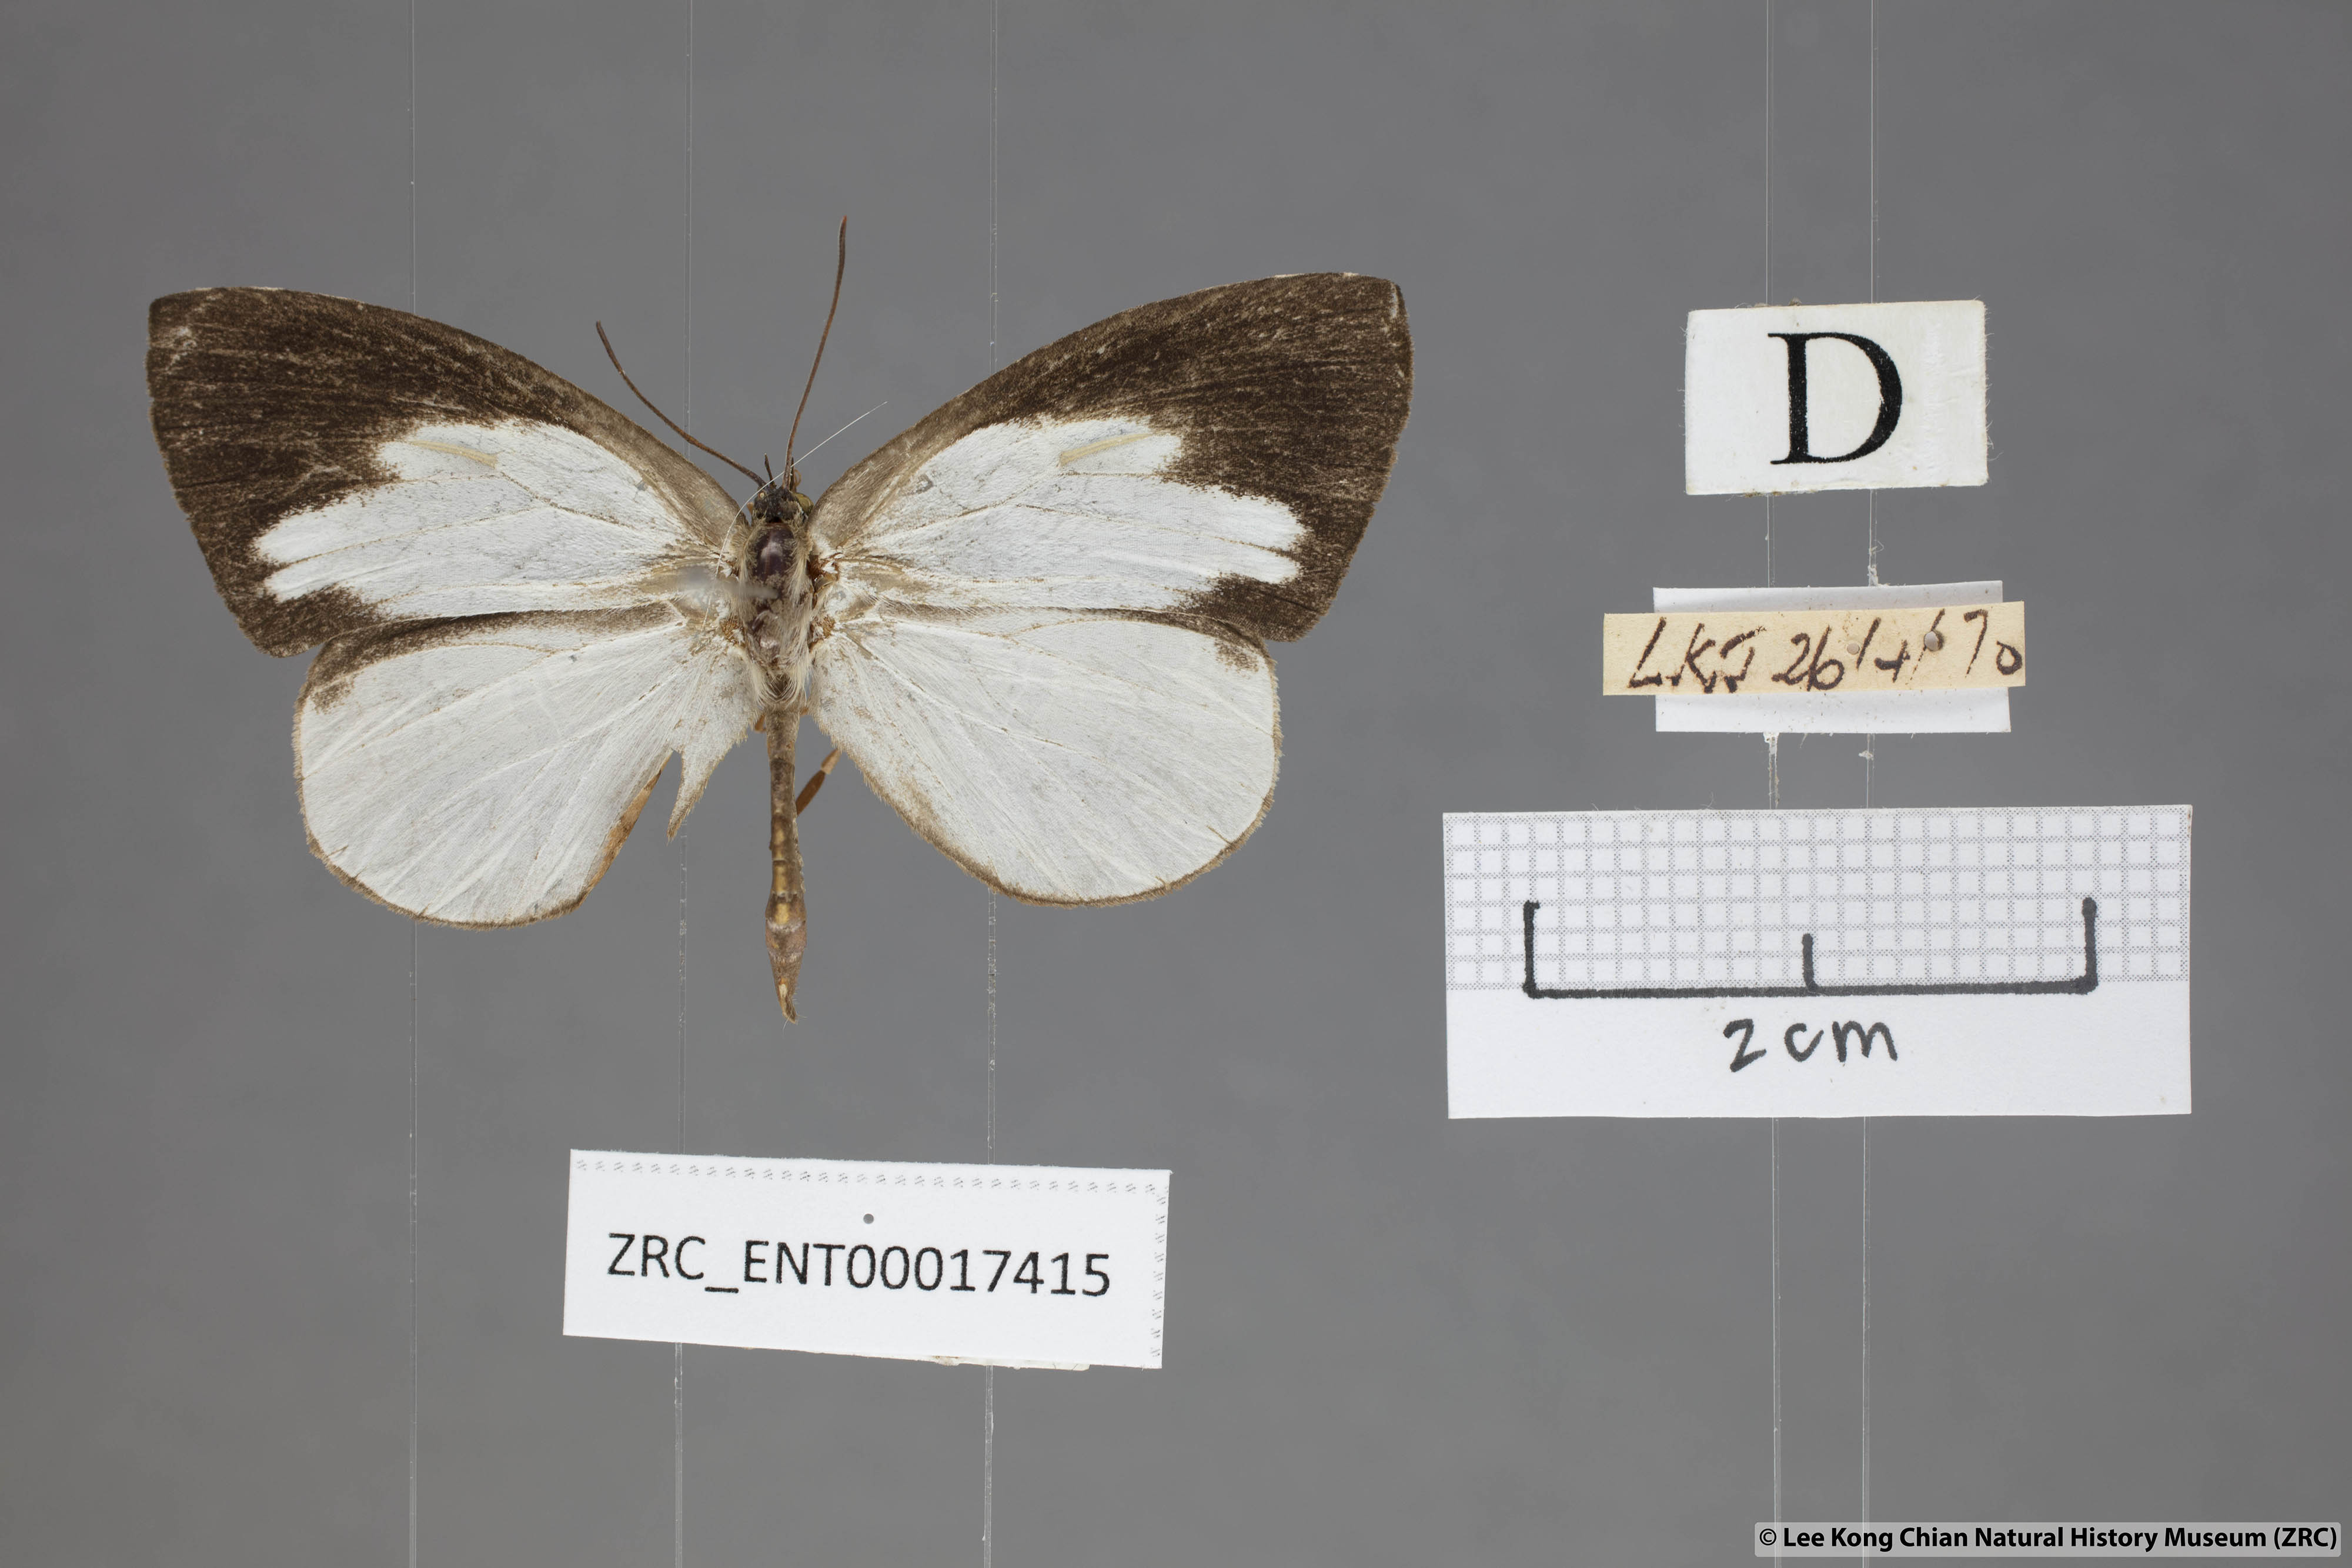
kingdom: Animalia
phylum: Arthropoda
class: Insecta
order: Lepidoptera
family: Lycaenidae
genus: Miletus
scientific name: Miletus
